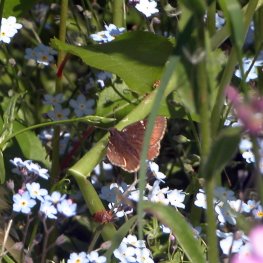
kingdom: Animalia
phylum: Arthropoda
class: Insecta
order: Lepidoptera
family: Hesperiidae
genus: Autochton
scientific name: Autochton
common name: Northern Cloudywing
